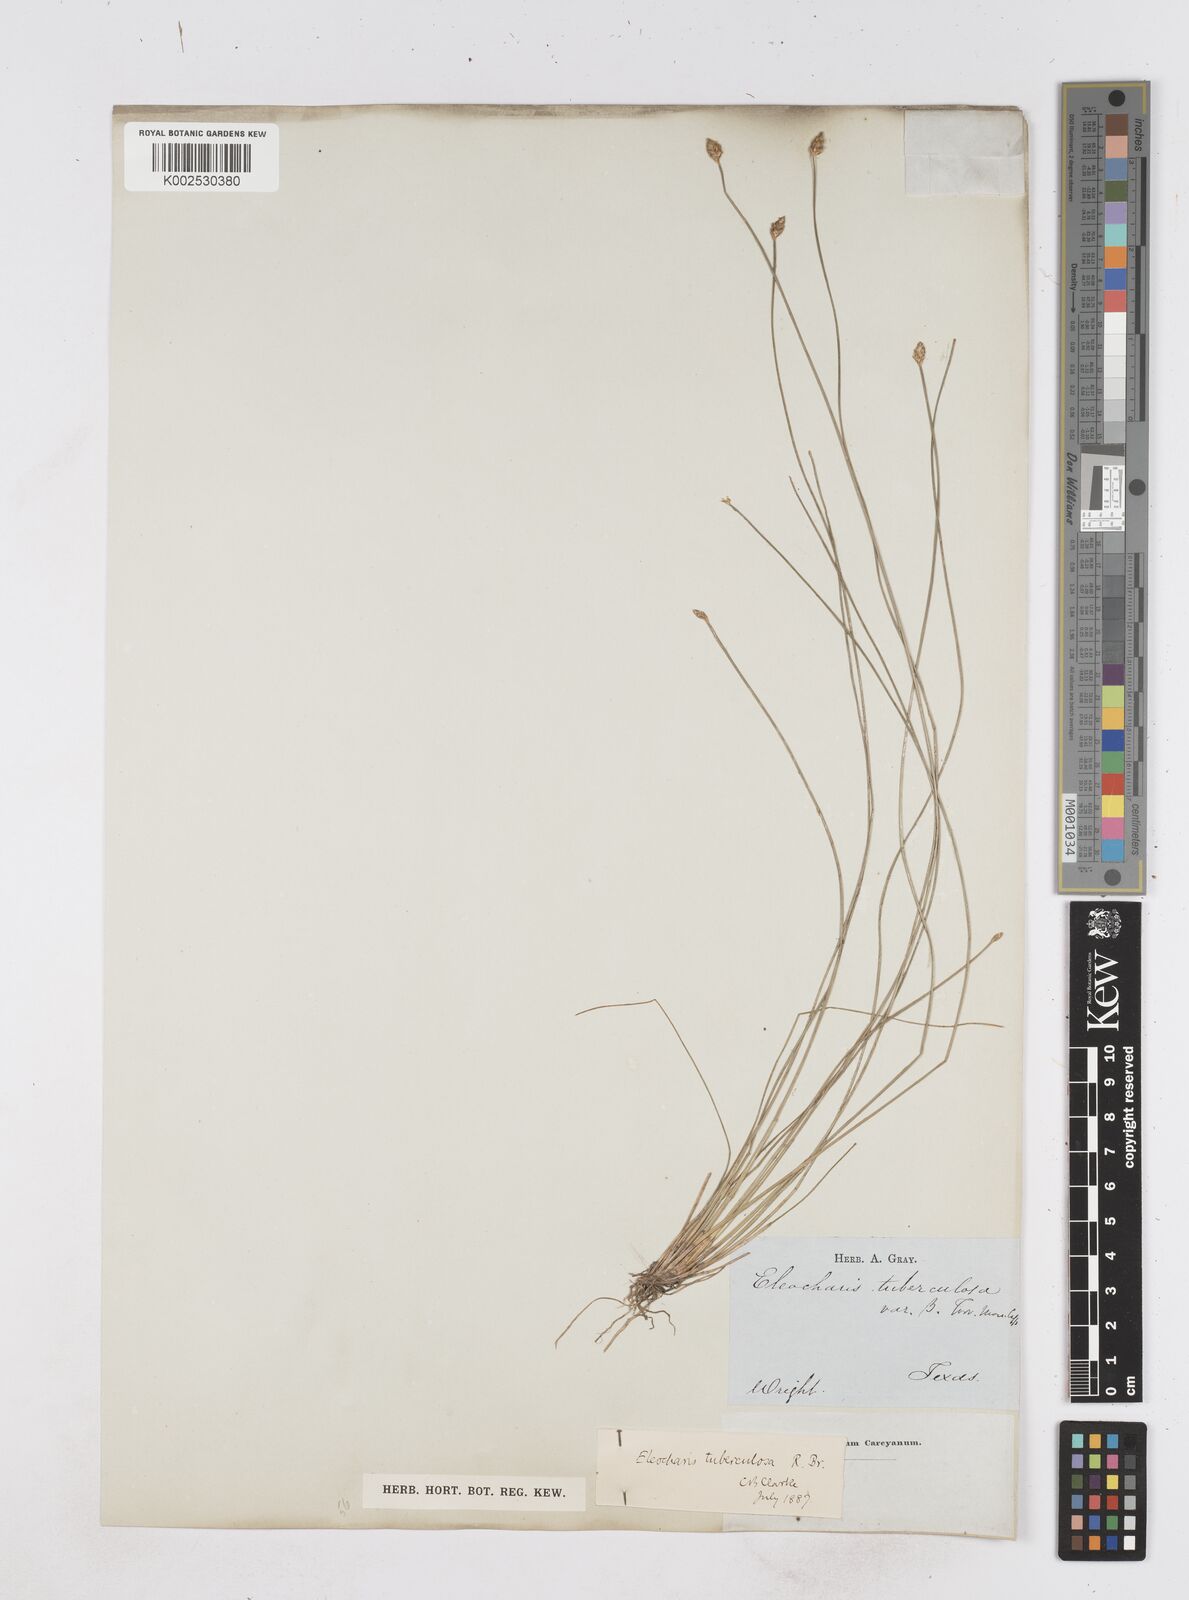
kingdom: Plantae
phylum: Tracheophyta
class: Liliopsida
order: Poales
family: Cyperaceae
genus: Eleocharis
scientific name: Eleocharis tuberculosa
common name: Cone-cup spikerush
